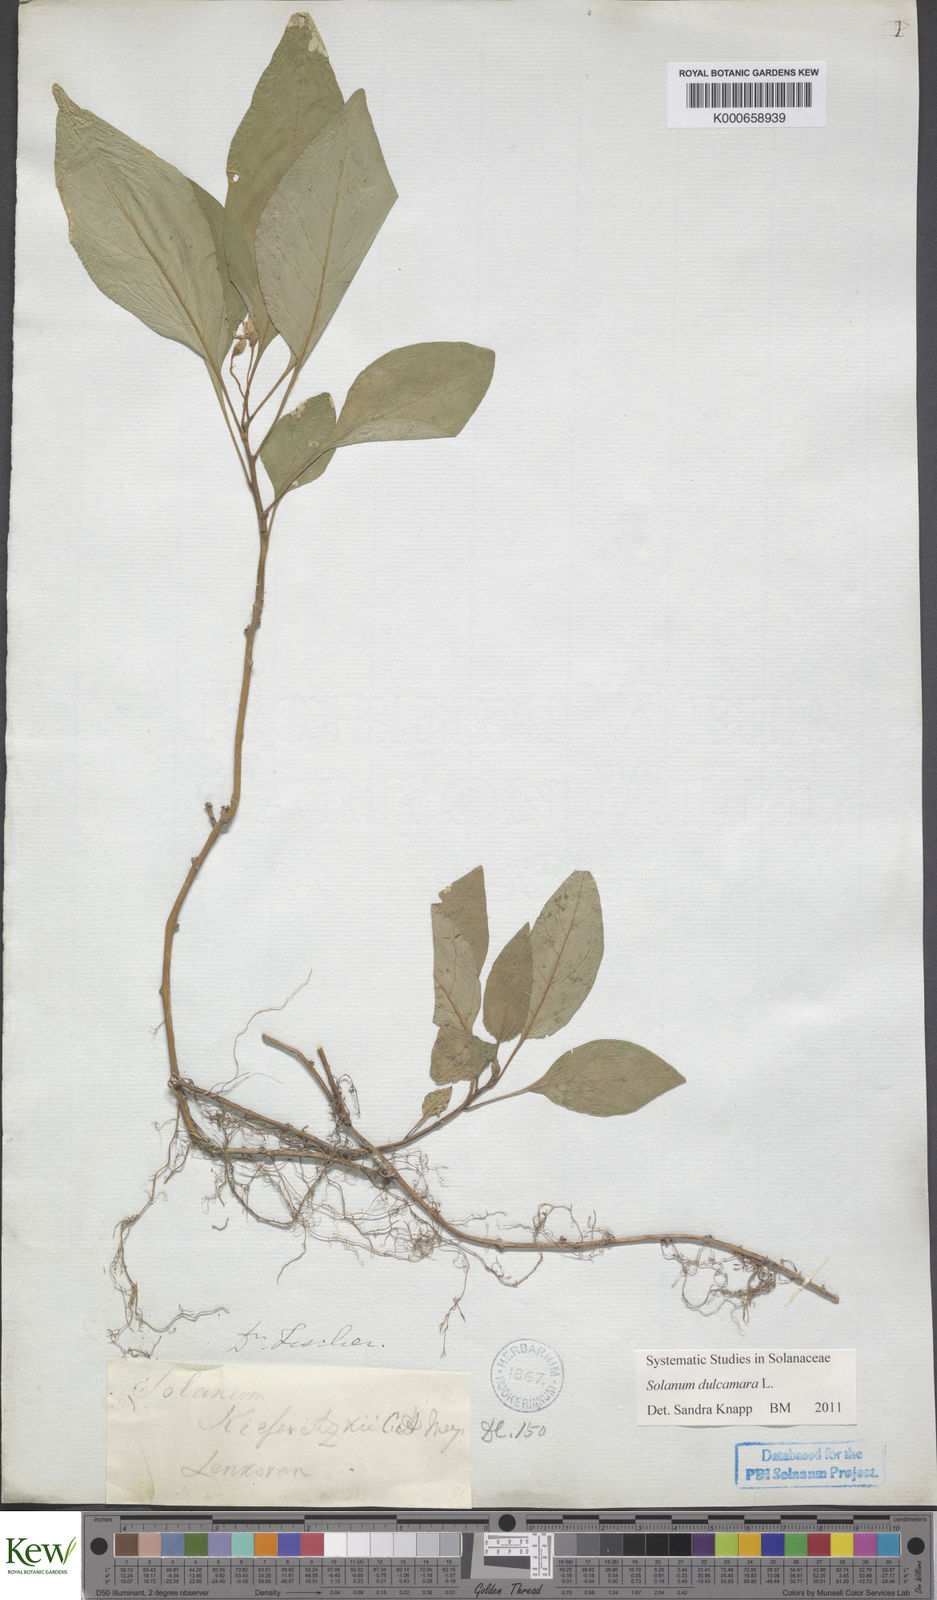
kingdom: Plantae
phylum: Tracheophyta
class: Magnoliopsida
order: Solanales
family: Solanaceae
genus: Solanum
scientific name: Solanum dulcamara
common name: Climbing nightshade
